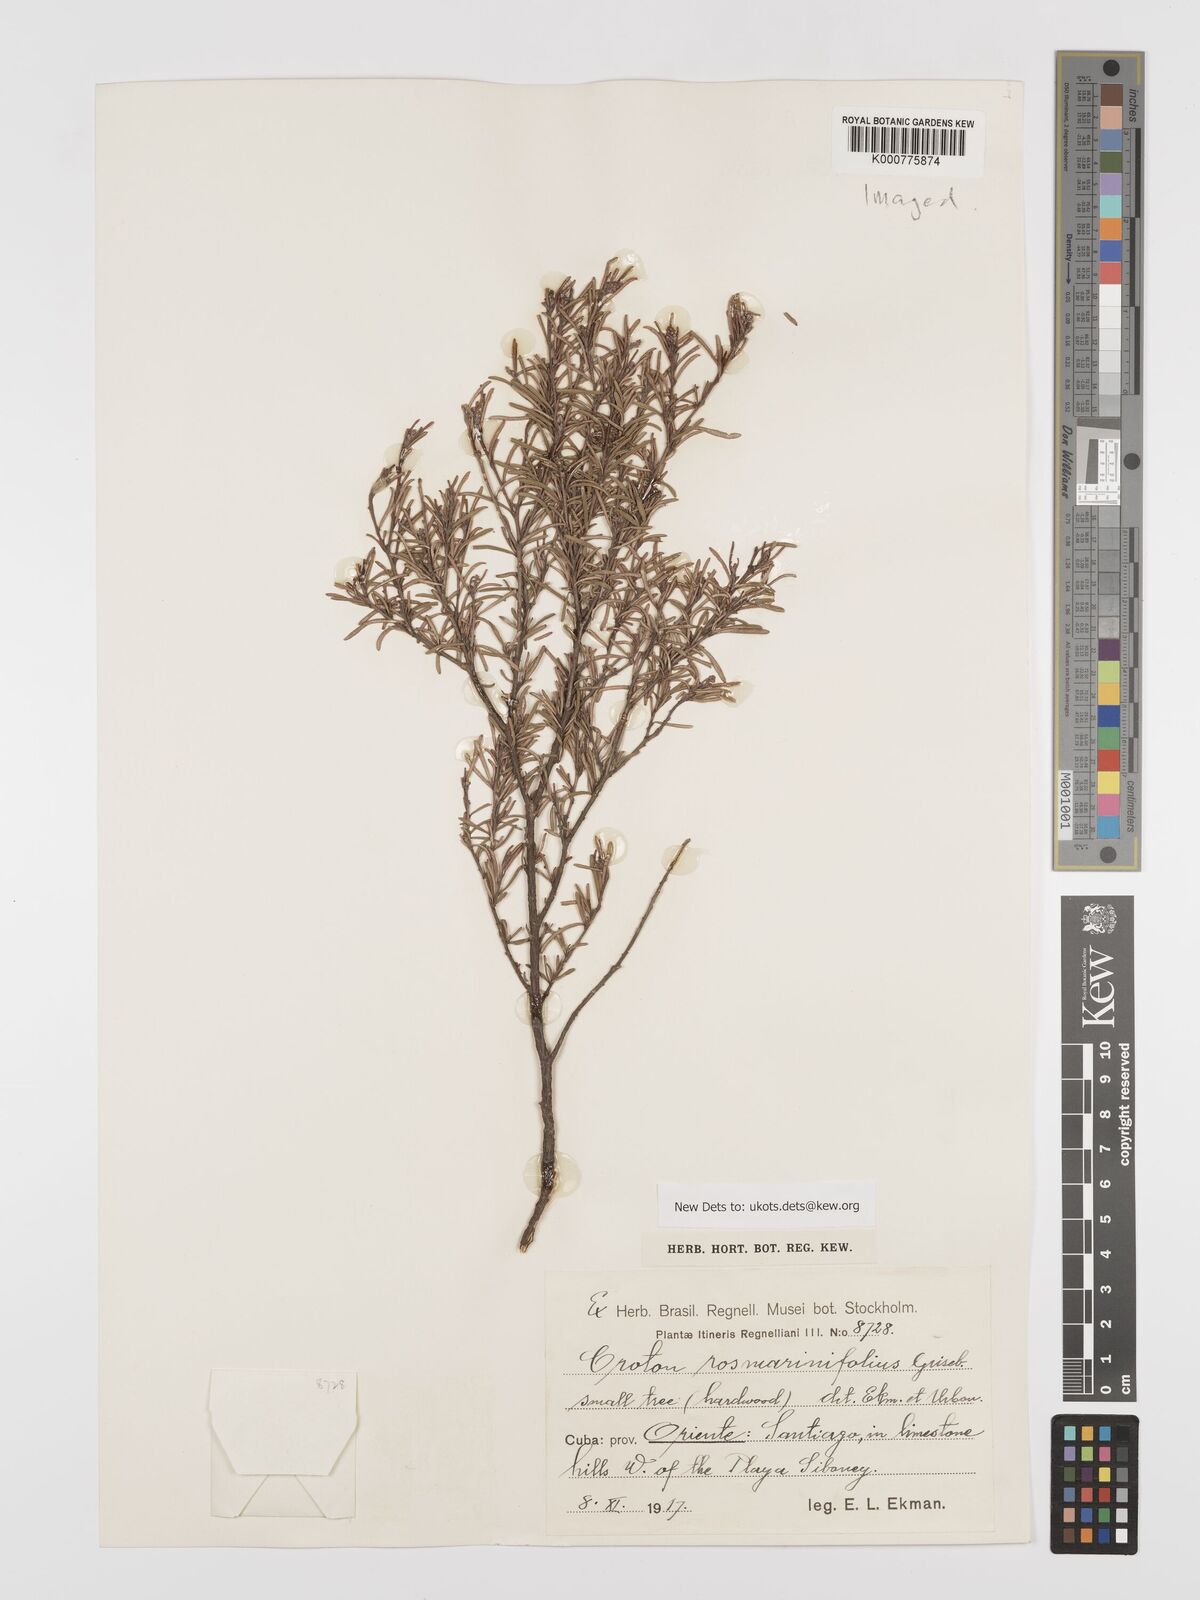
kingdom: Plantae
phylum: Tracheophyta
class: Magnoliopsida
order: Malpighiales
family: Euphorbiaceae
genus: Croton
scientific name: Croton
